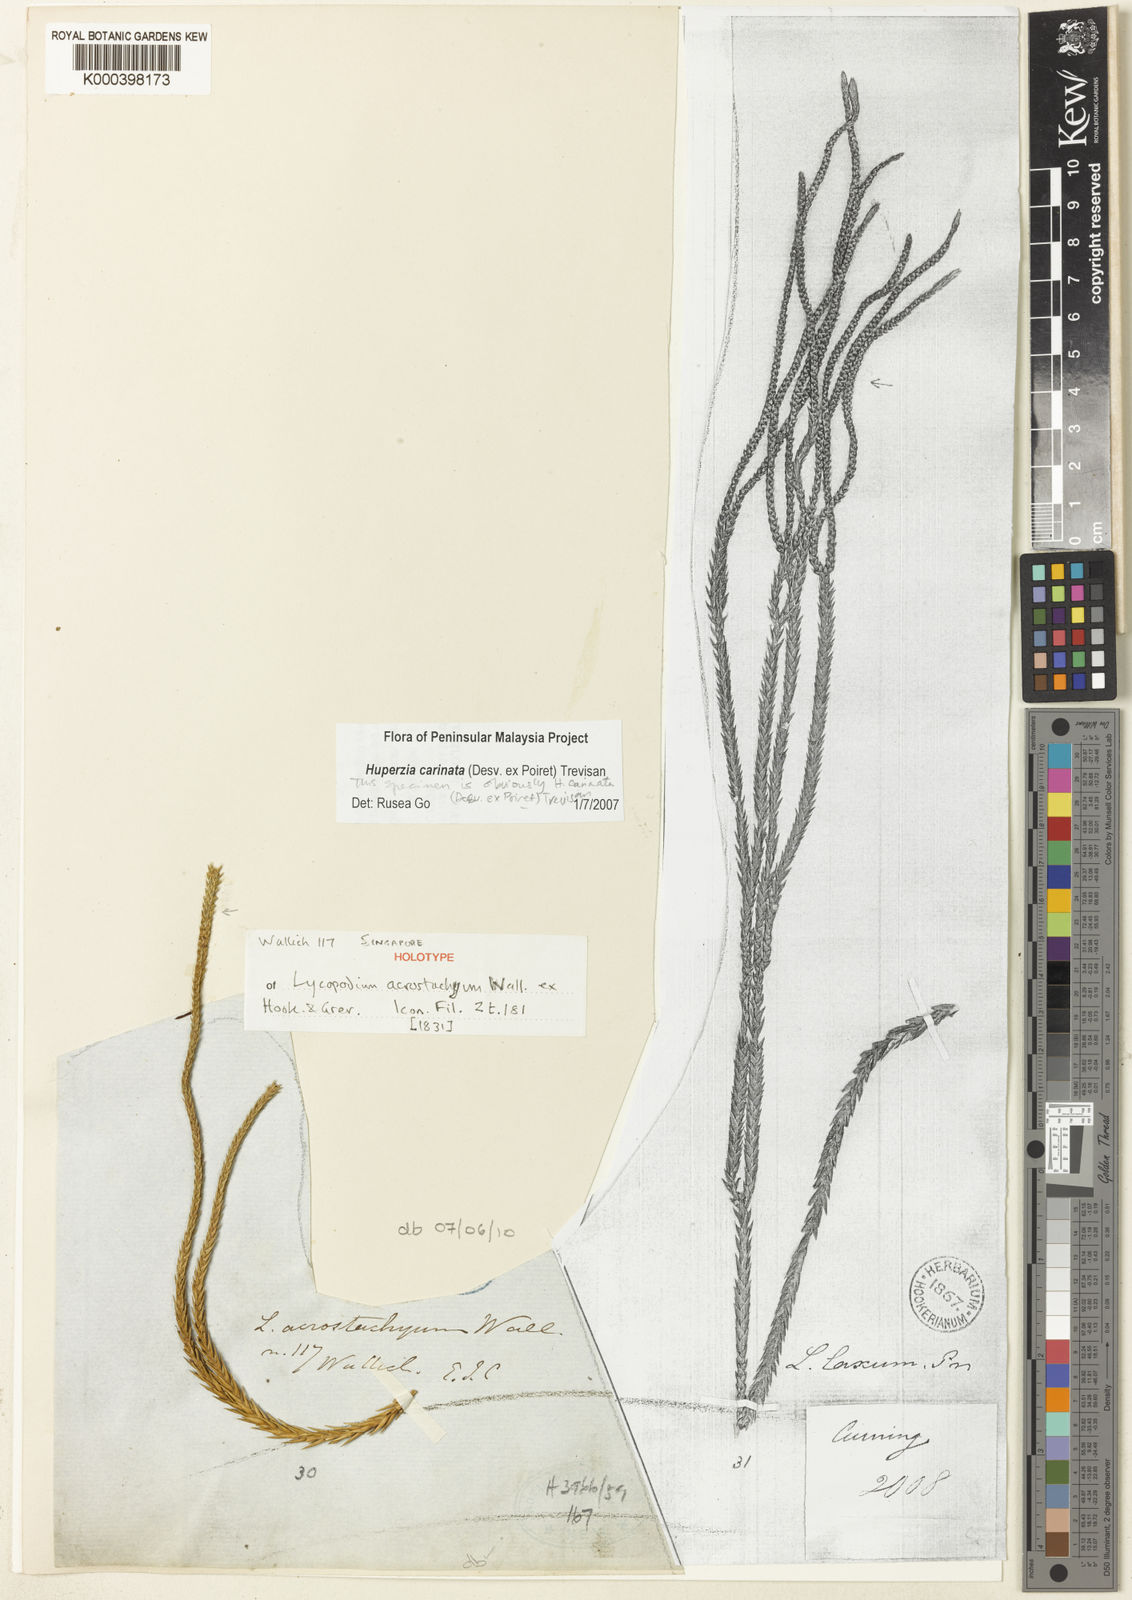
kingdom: Plantae
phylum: Tracheophyta
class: Lycopodiopsida
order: Lycopodiales
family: Lycopodiaceae
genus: Phlegmariurus
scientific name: Phlegmariurus carinatus
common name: Keeled tassel-fern
